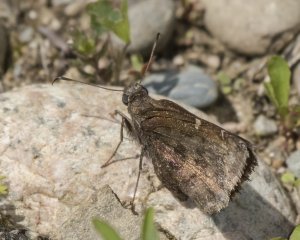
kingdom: Animalia
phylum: Arthropoda
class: Insecta
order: Lepidoptera
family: Hesperiidae
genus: Autochton
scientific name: Autochton
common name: Northern Cloudywing
